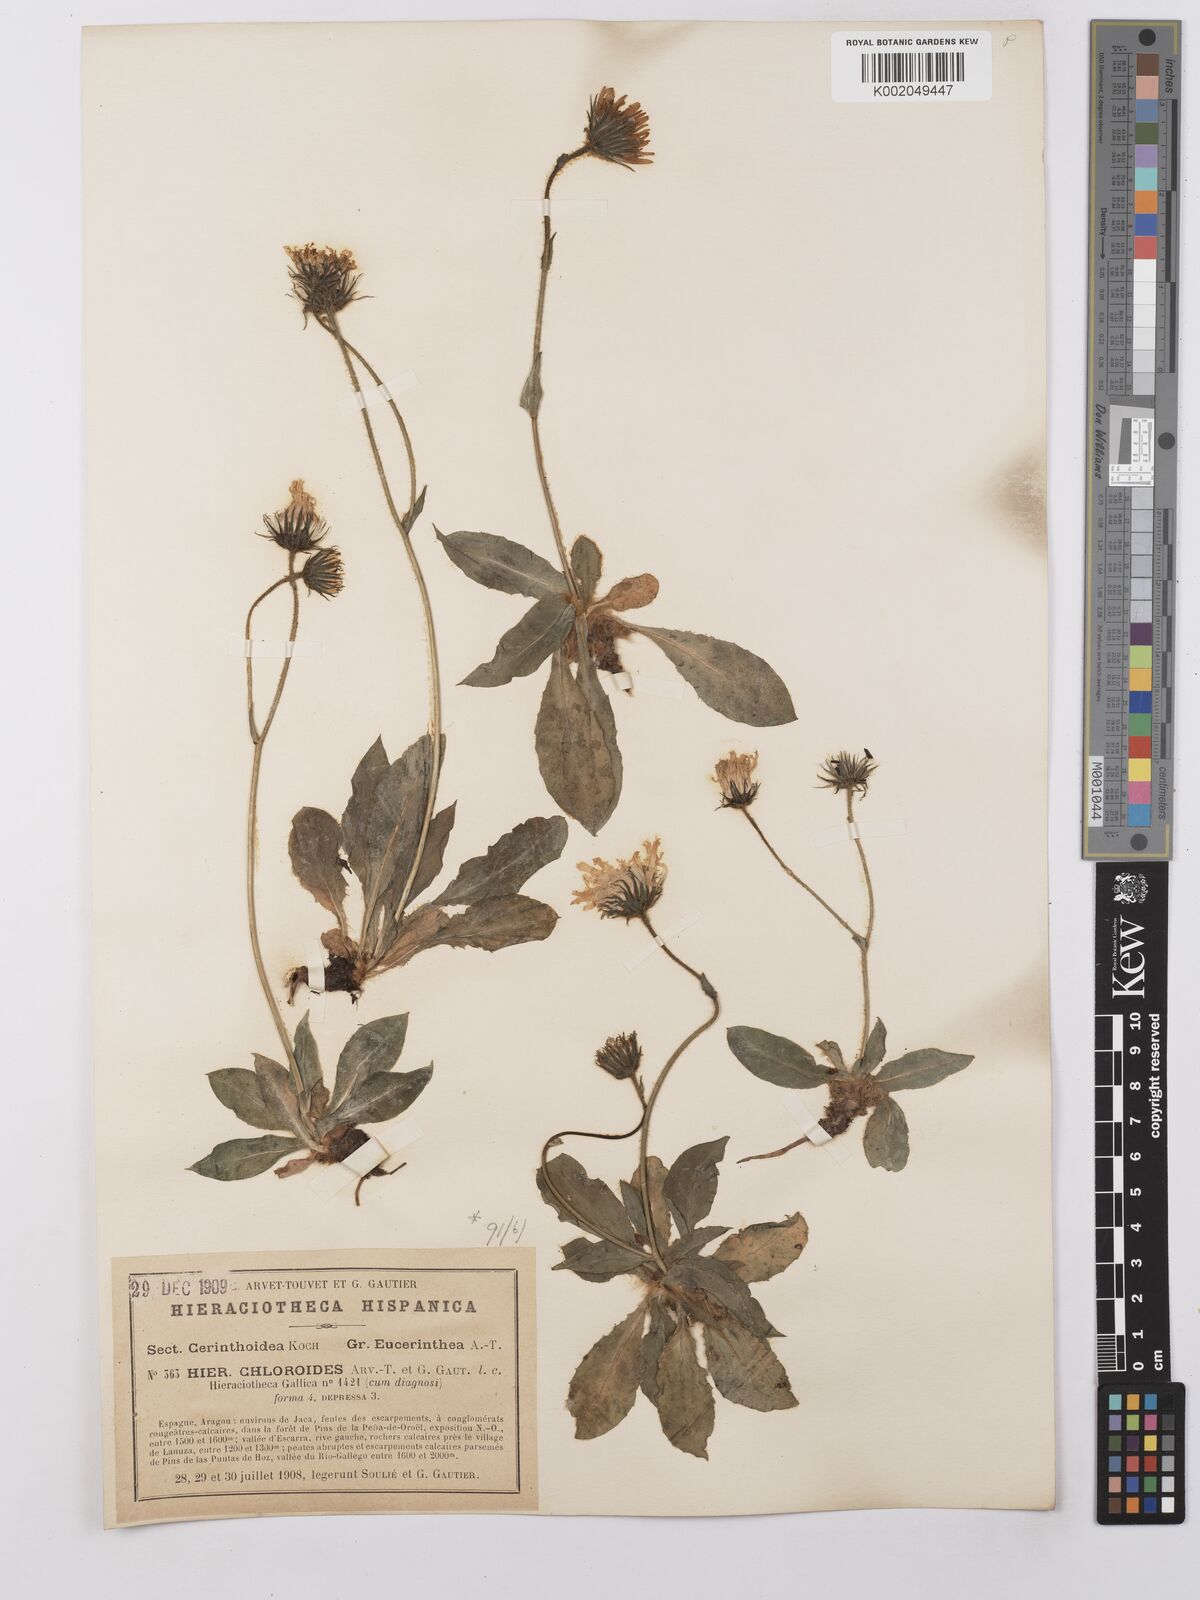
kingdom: Plantae
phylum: Tracheophyta
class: Magnoliopsida
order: Asterales
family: Asteraceae
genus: Hieracium
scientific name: Hieracium ramondii
